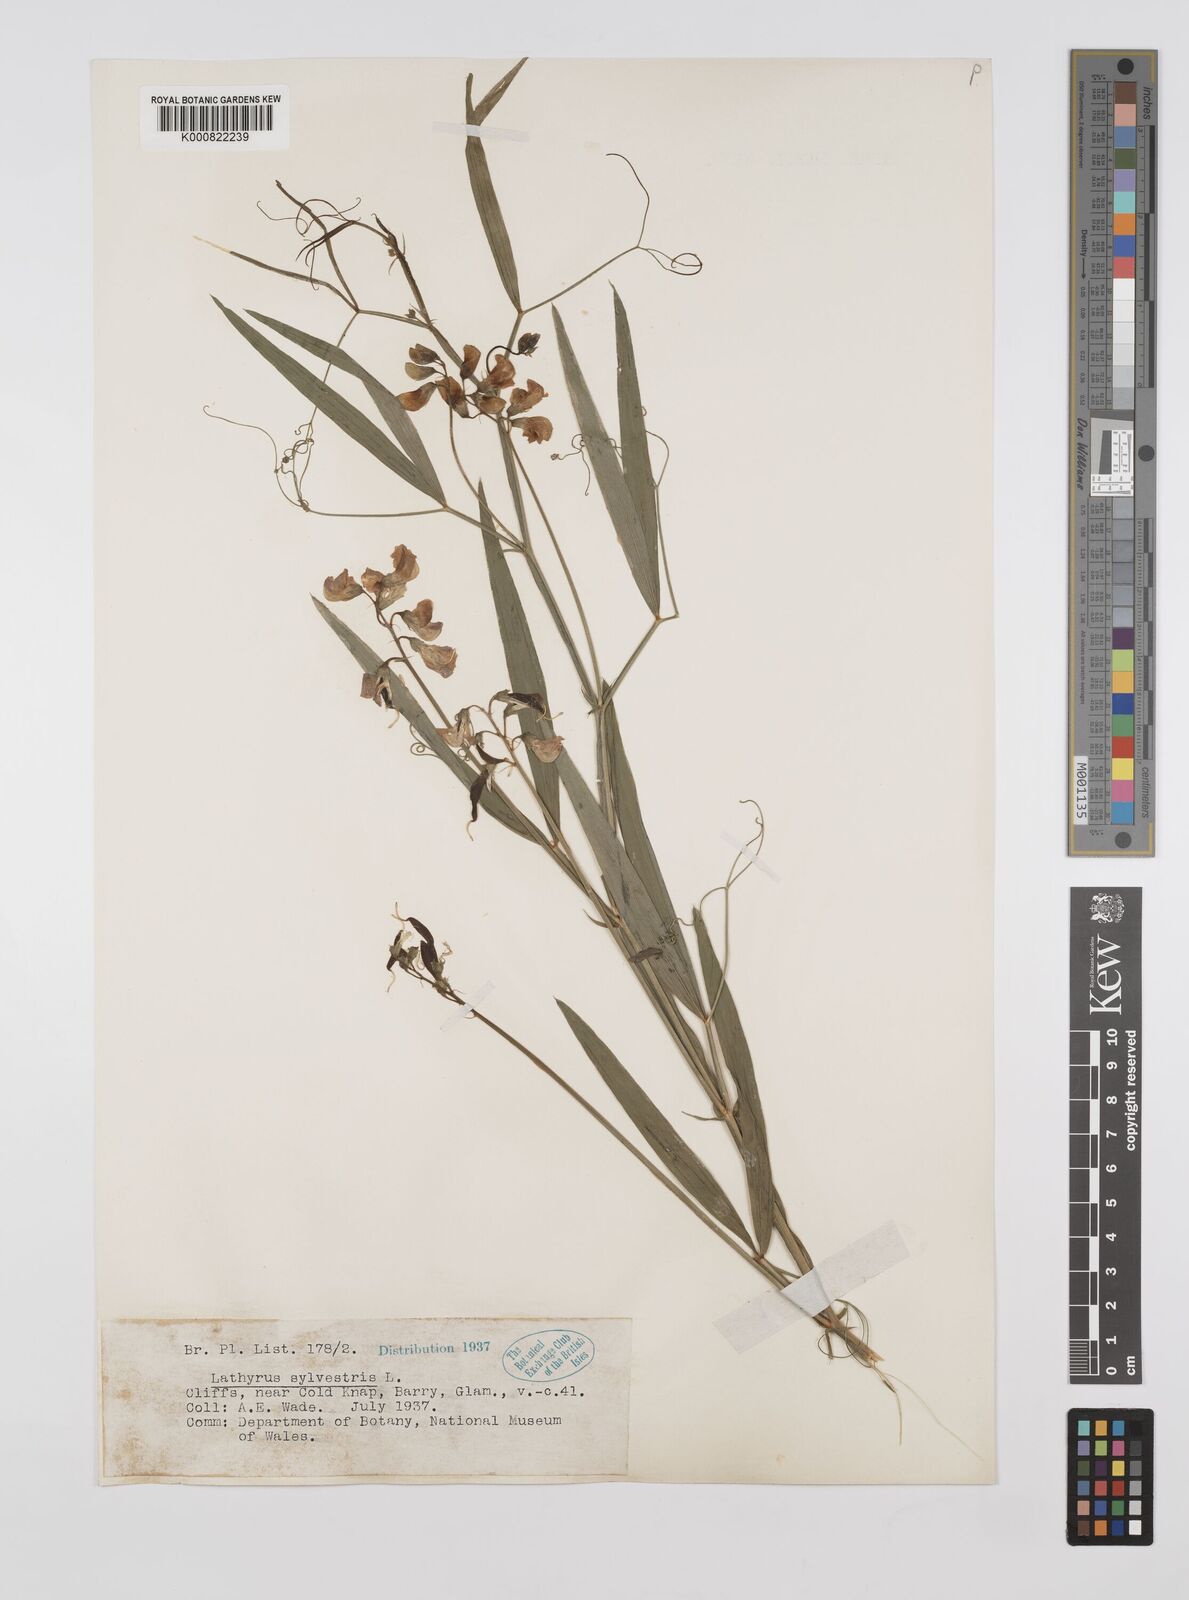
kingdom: Plantae
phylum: Tracheophyta
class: Magnoliopsida
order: Fabales
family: Fabaceae
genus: Lathyrus
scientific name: Lathyrus sylvestris
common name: Flat pea
